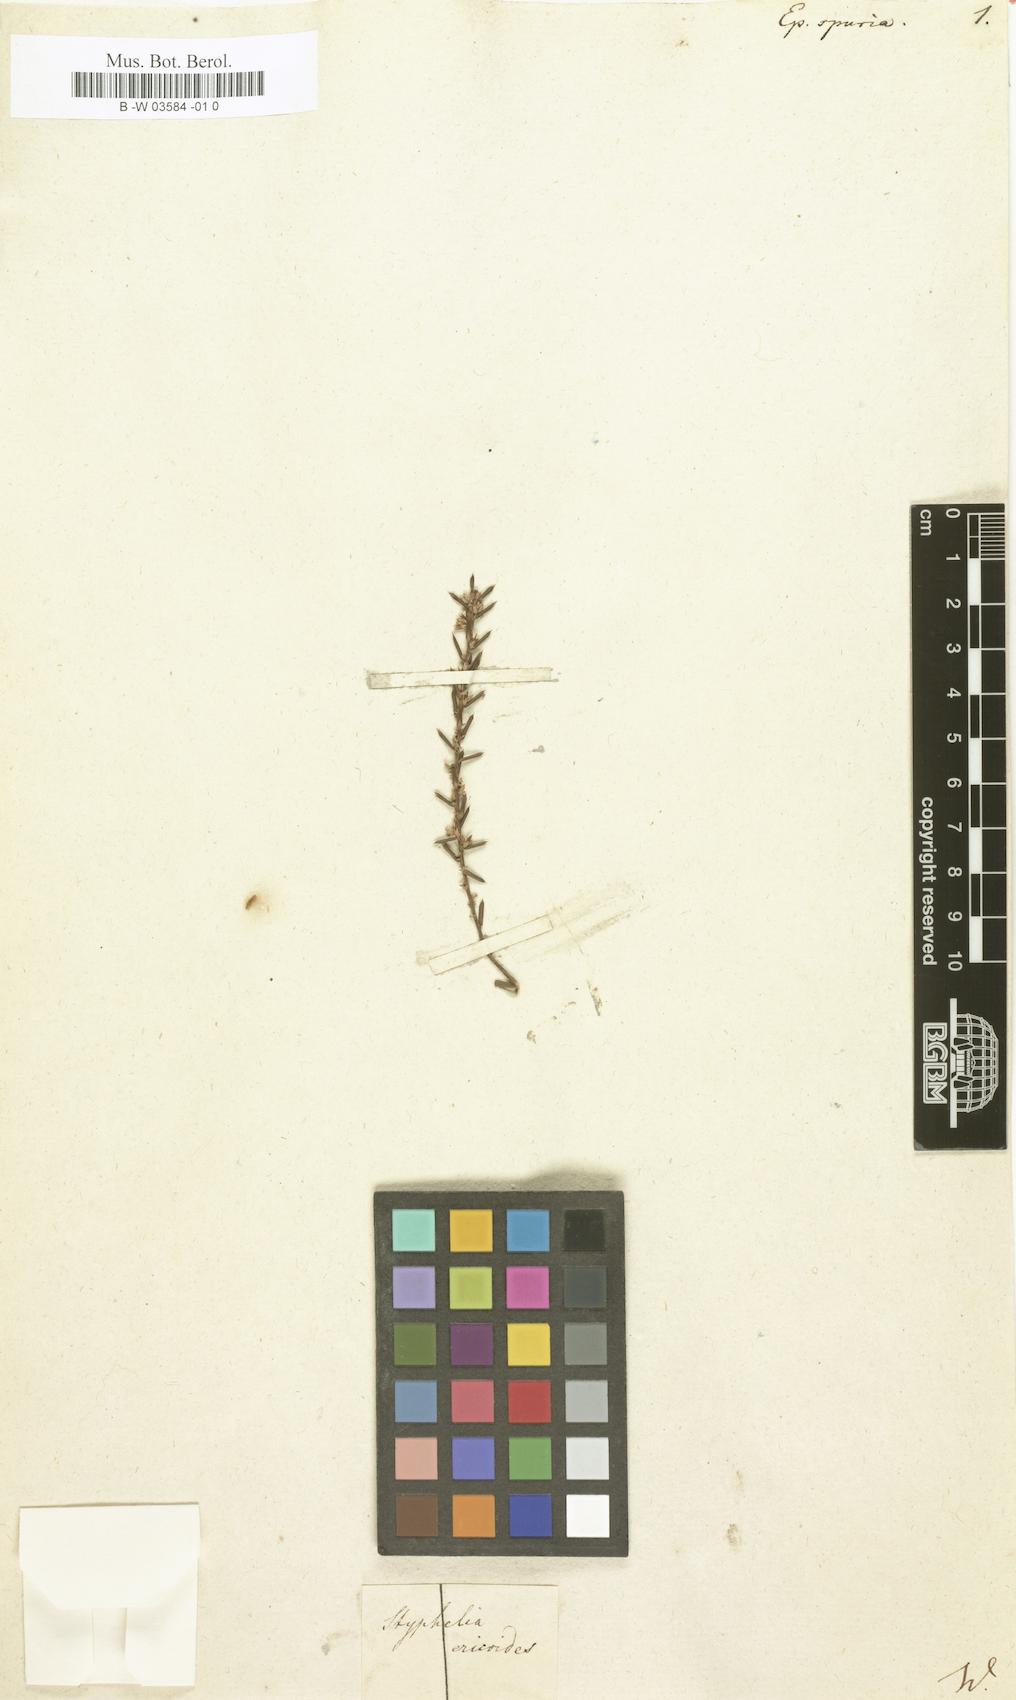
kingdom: Plantae
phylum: Tracheophyta
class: Magnoliopsida
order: Ericales
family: Ericaceae
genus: Styphelia
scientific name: Styphelia ericoides
